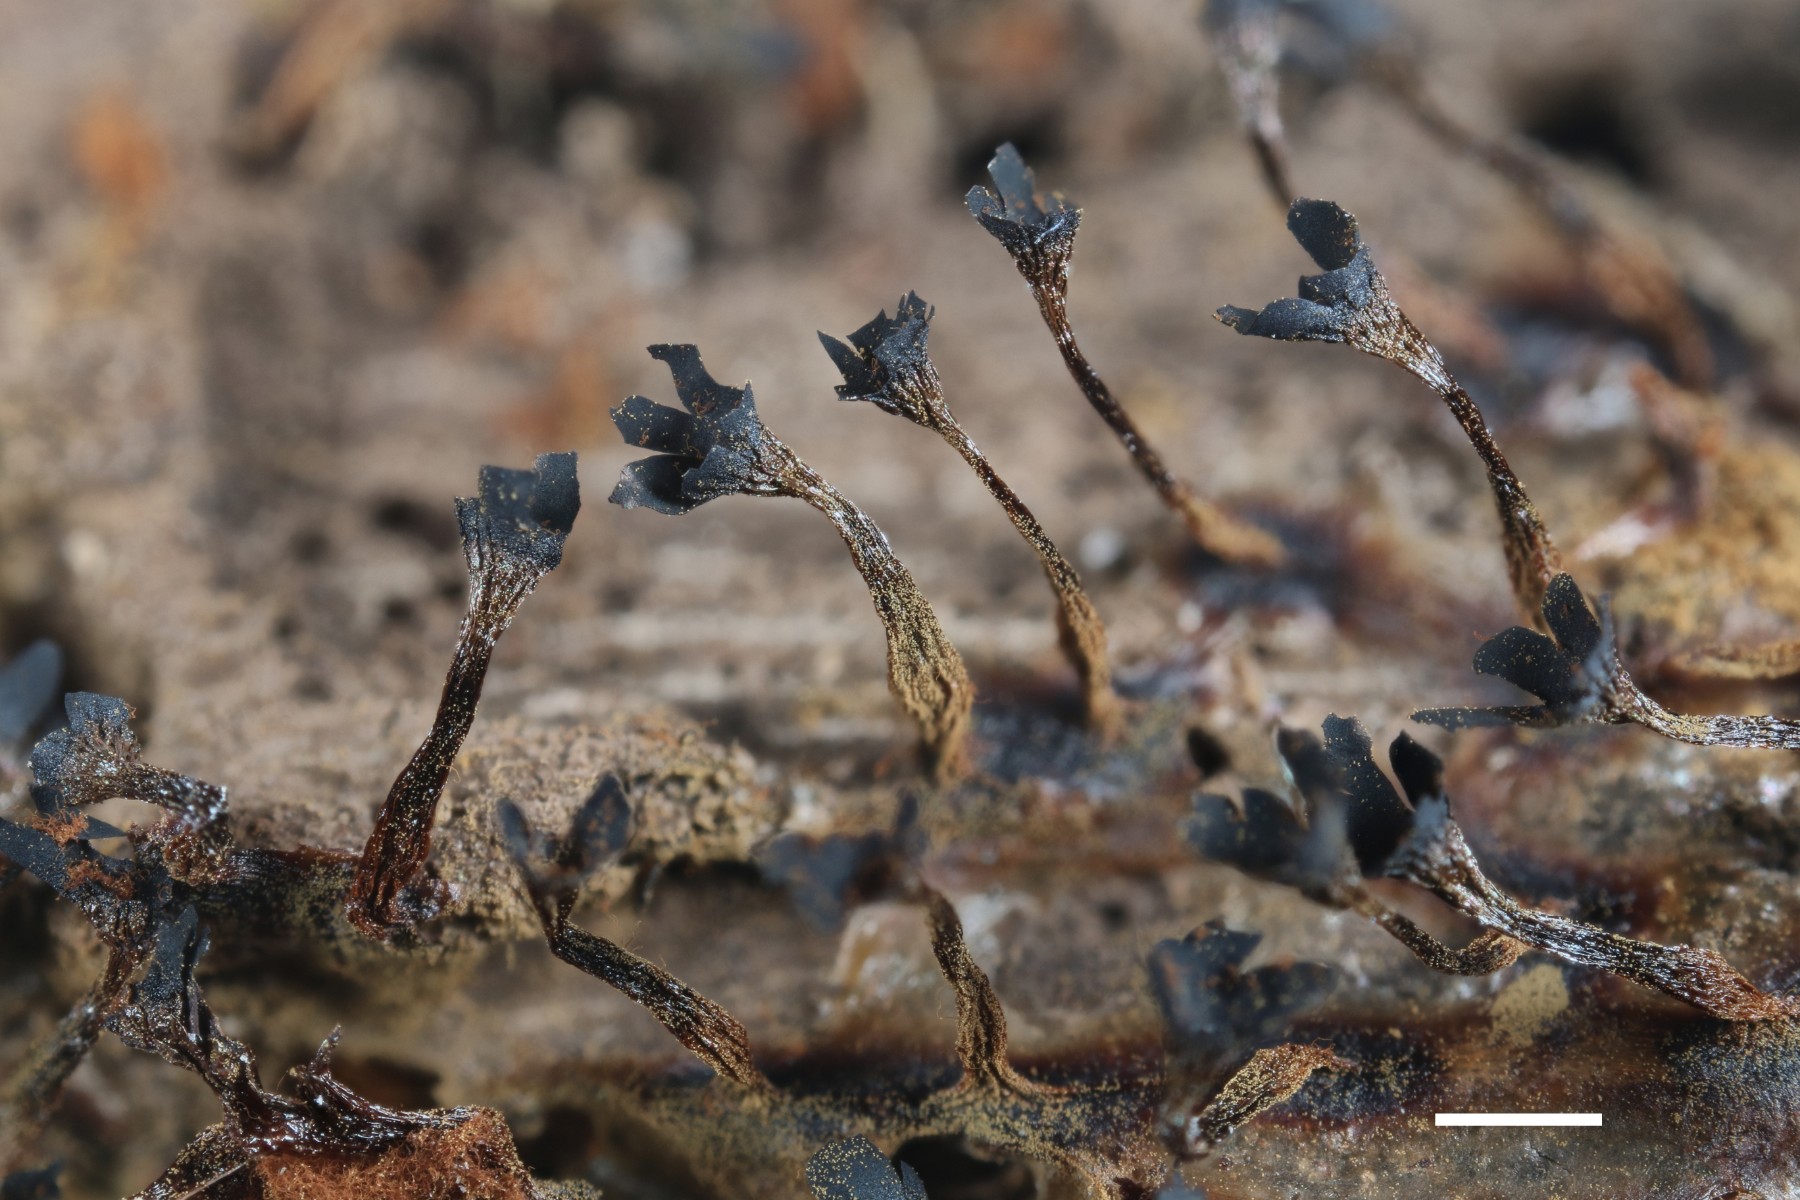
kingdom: Protozoa
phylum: Mycetozoa
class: Myxomycetes
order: Trichiales
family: Trichiaceae
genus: Metatrichia
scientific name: Metatrichia floriformis
